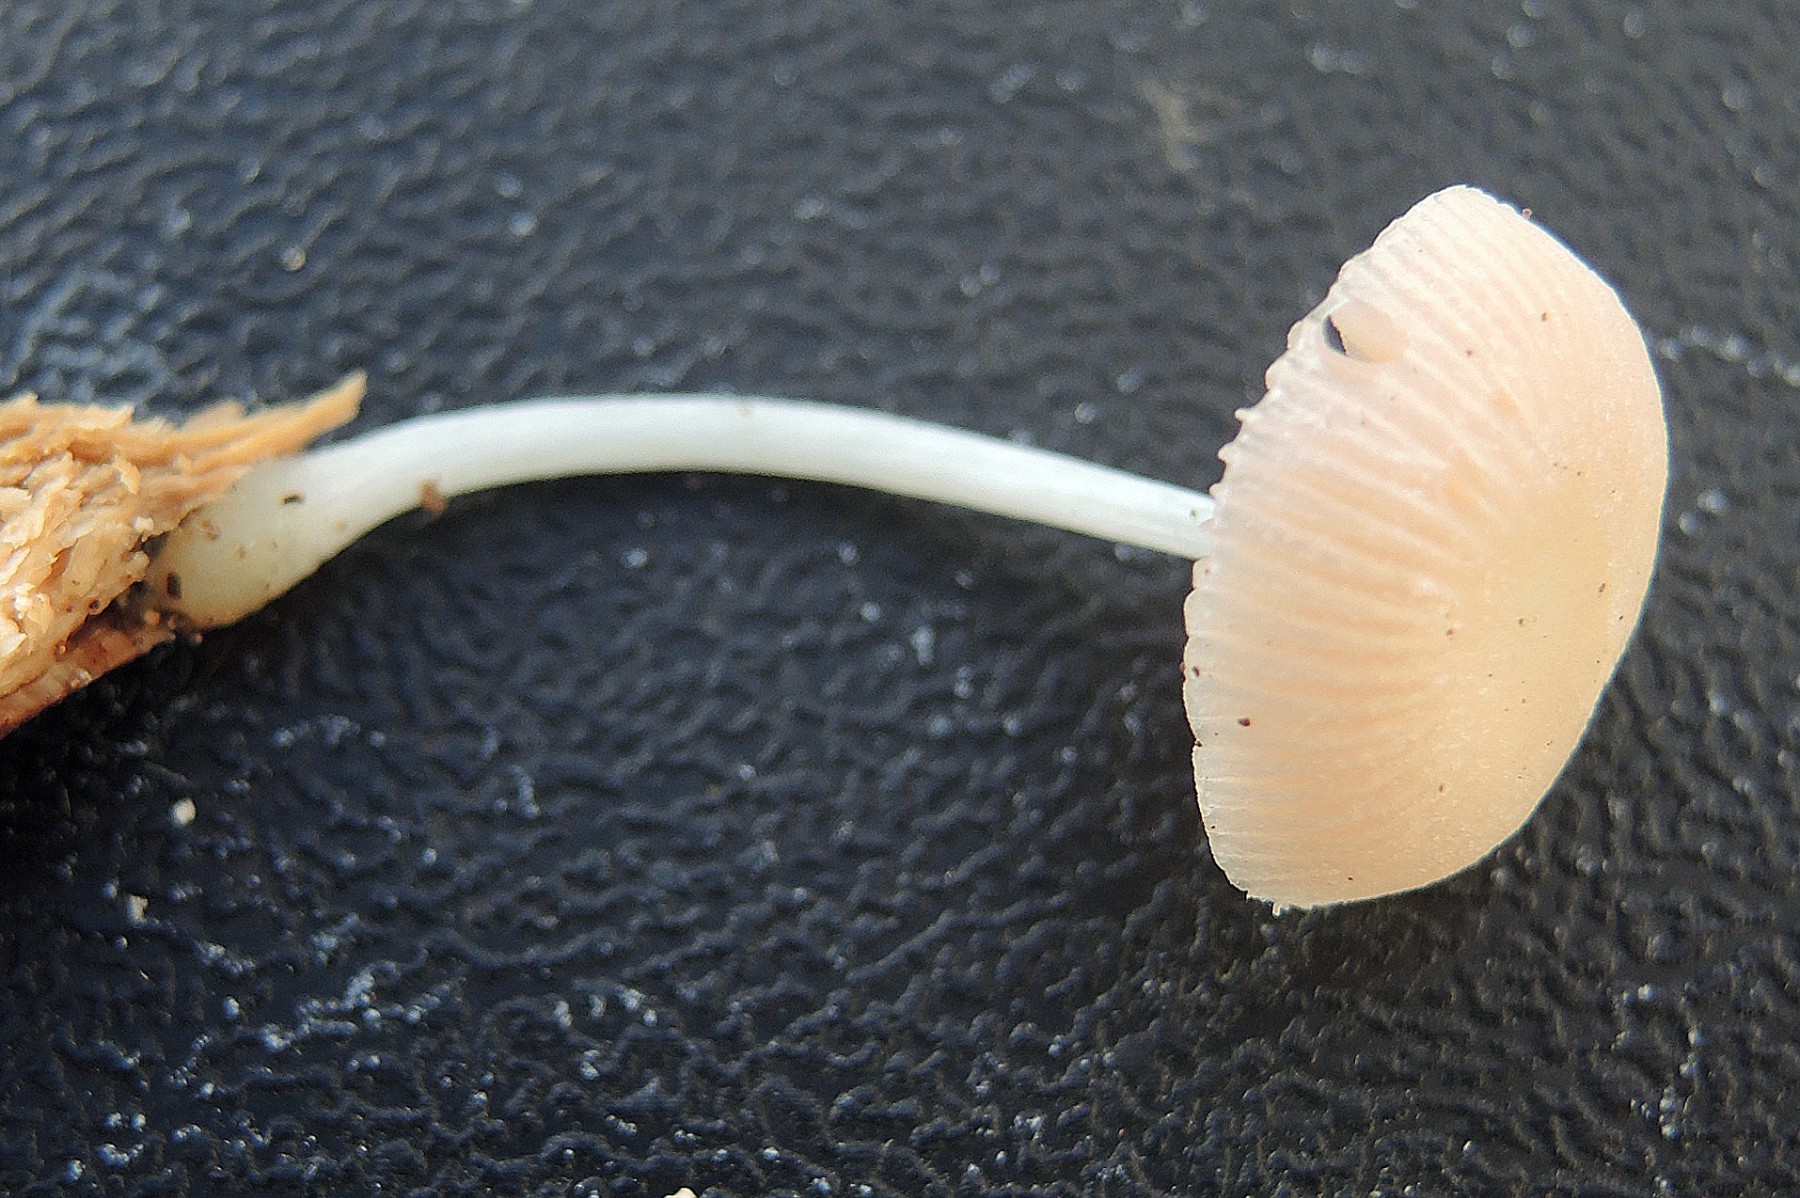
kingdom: Fungi
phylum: Basidiomycota
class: Agaricomycetes
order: Agaricales
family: Pluteaceae
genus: Pluteus
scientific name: Pluteus semibulbosus
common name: knoldet skærmhat
